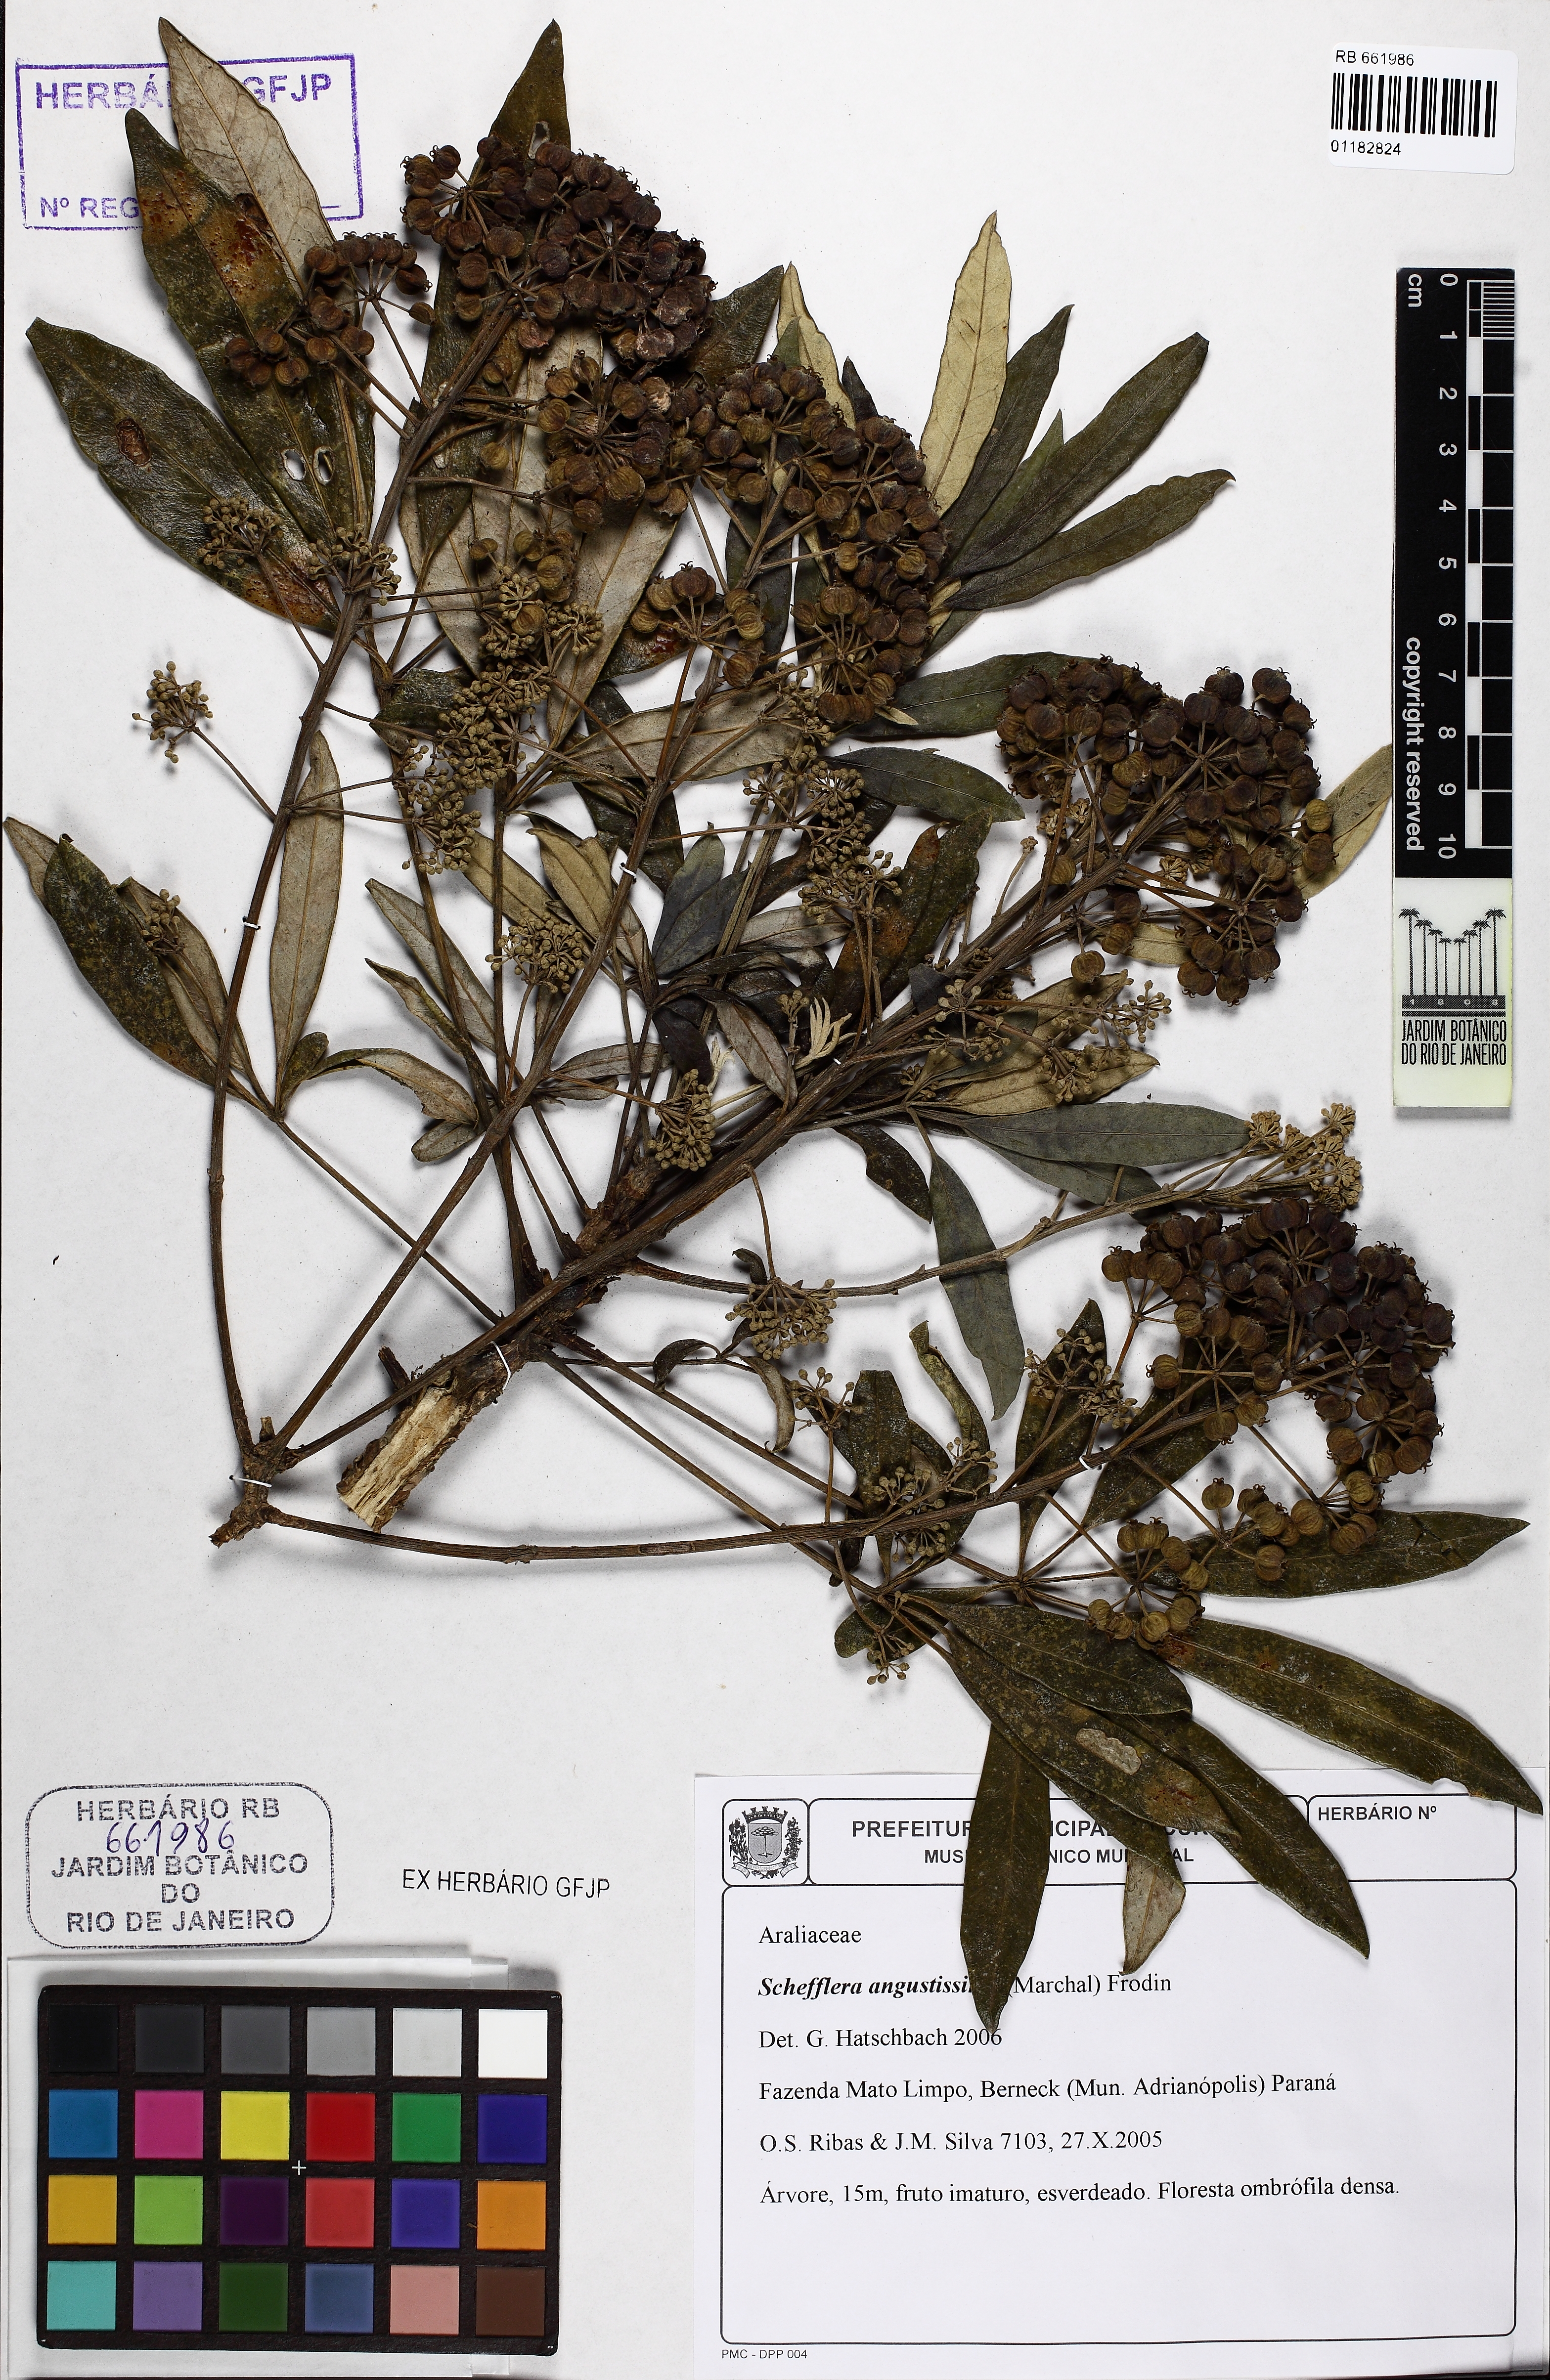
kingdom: Plantae
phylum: Tracheophyta
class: Magnoliopsida
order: Apiales
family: Araliaceae
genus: Didymopanax
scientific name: Didymopanax angustissimus
